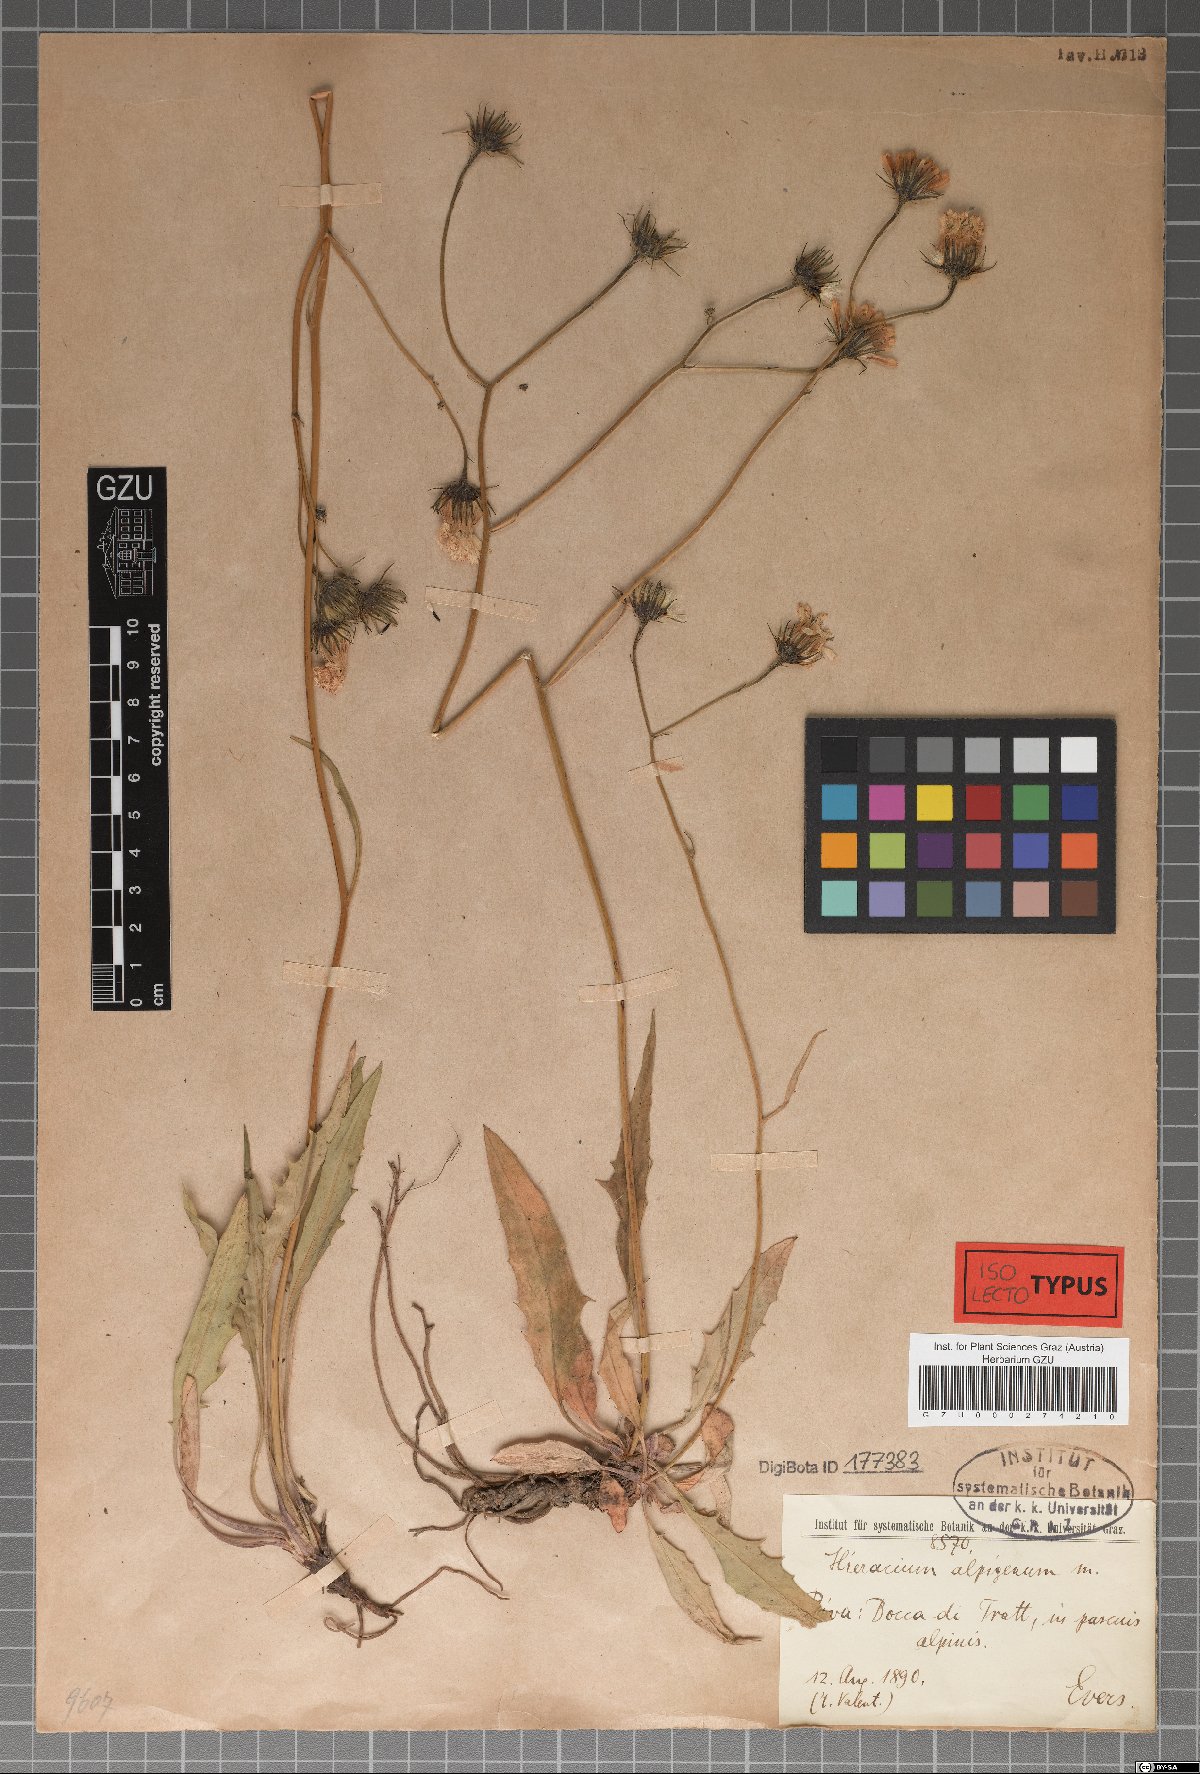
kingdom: Plantae
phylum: Tracheophyta
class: Magnoliopsida
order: Asterales
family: Asteraceae
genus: Hieracium
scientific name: Hieracium alpigena
